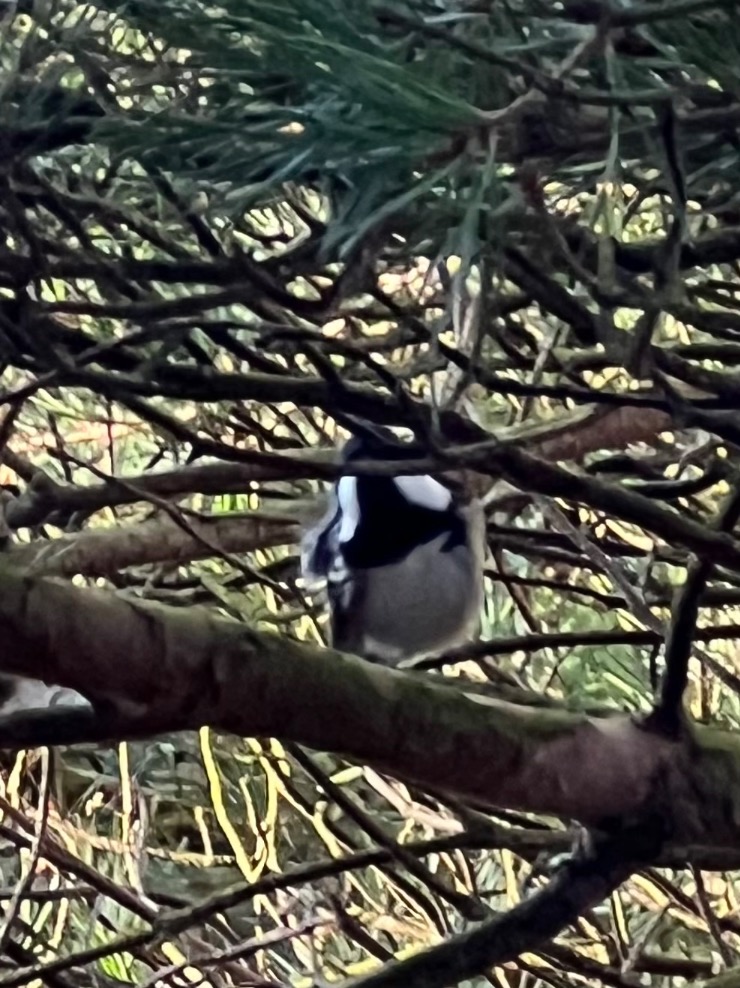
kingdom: Animalia
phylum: Chordata
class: Aves
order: Passeriformes
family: Paridae
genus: Periparus
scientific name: Periparus ater
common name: Sortmejse
